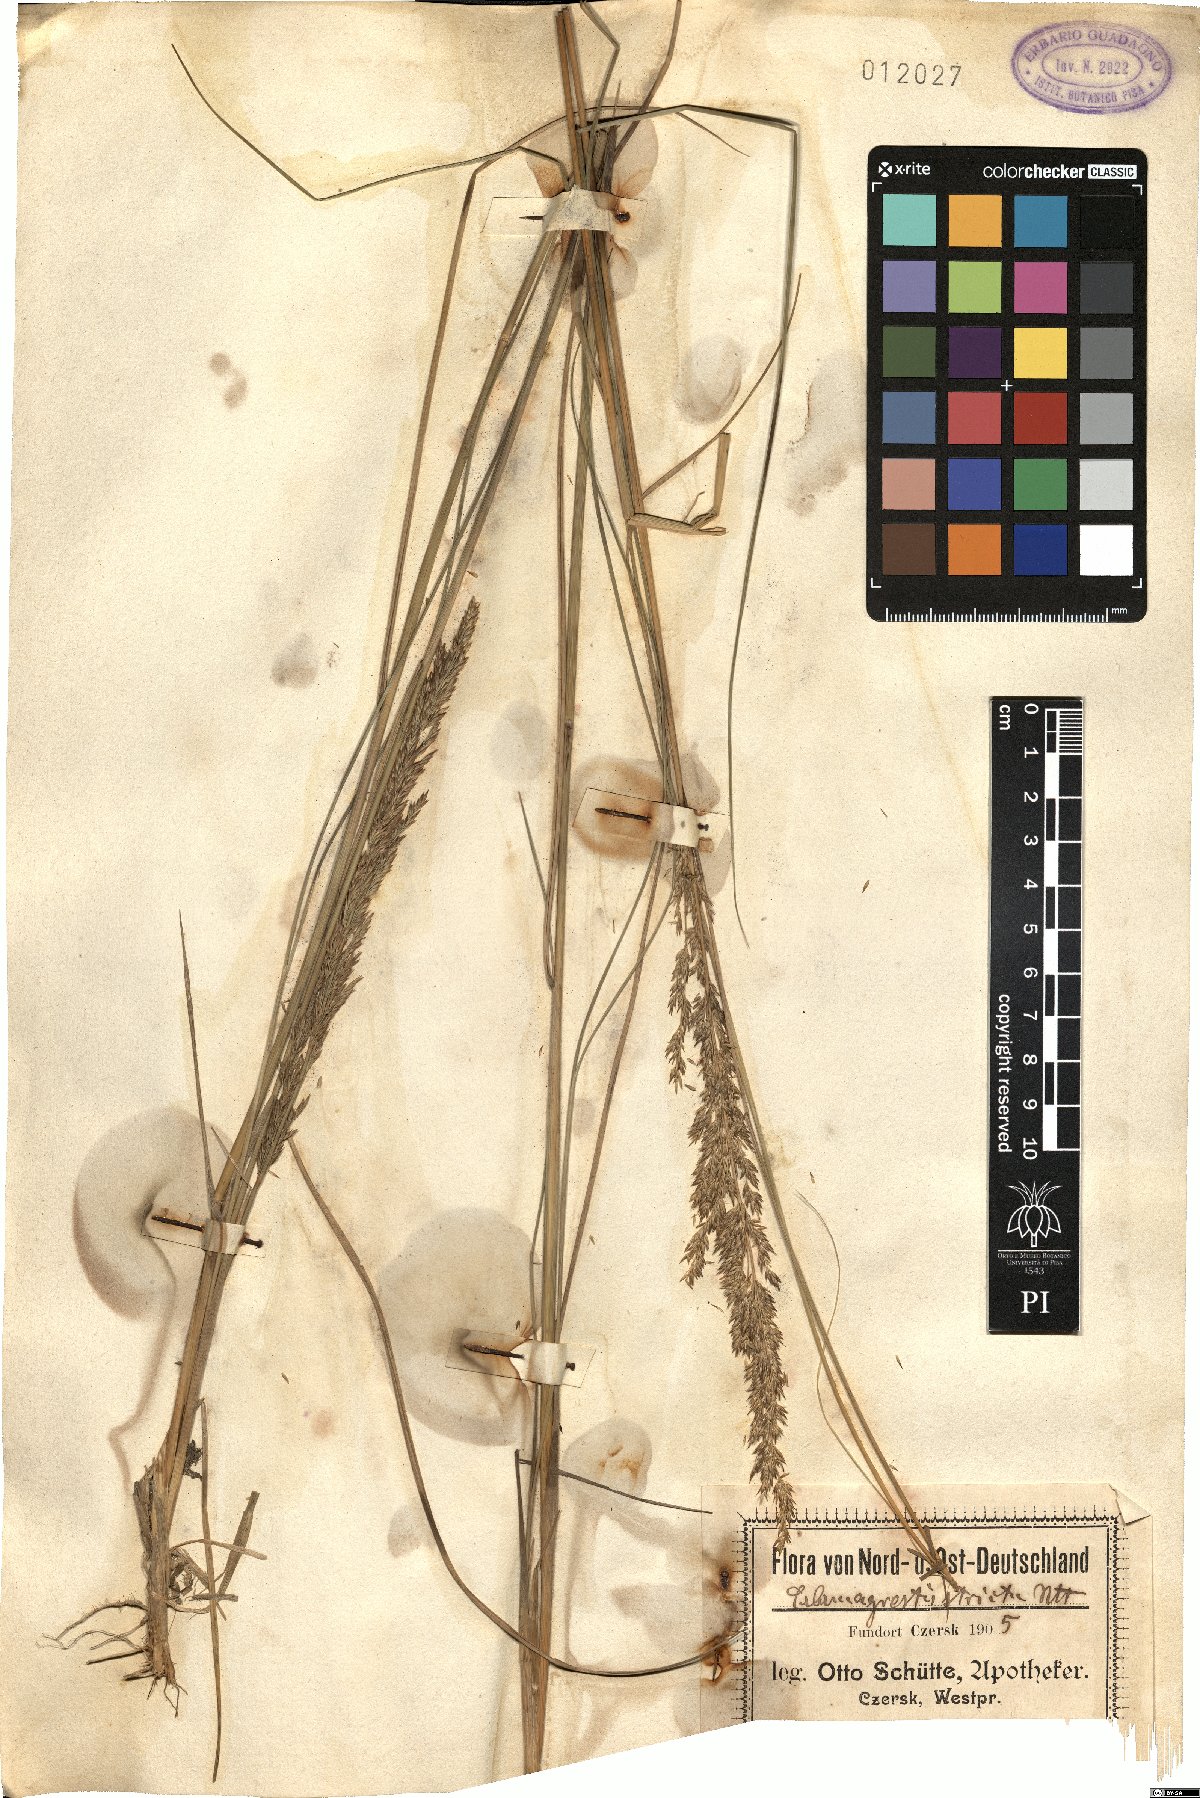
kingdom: Plantae
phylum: Tracheophyta
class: Liliopsida
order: Poales
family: Poaceae
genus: Calamagrostis
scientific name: Calamagrostis stricta
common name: Narrow small-reed
